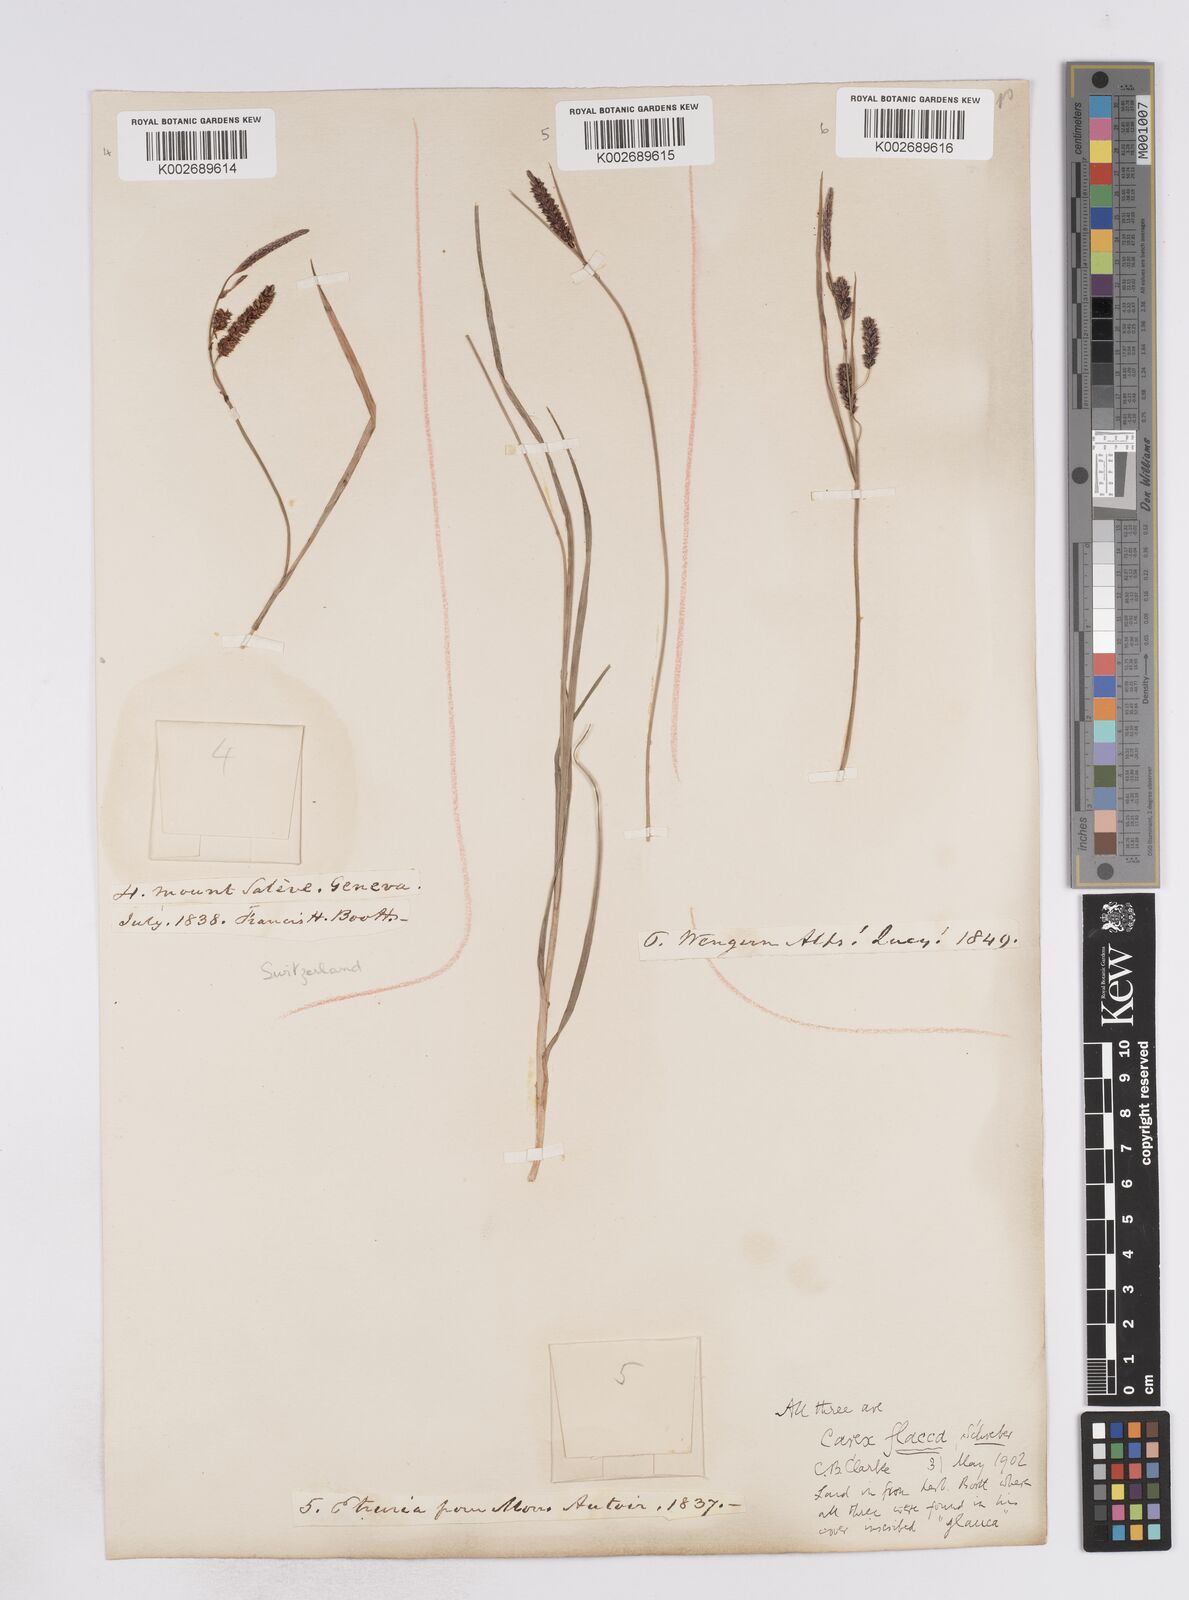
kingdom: Plantae
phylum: Tracheophyta
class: Liliopsida
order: Poales
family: Cyperaceae
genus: Carex
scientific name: Carex flacca
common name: Glaucous sedge
